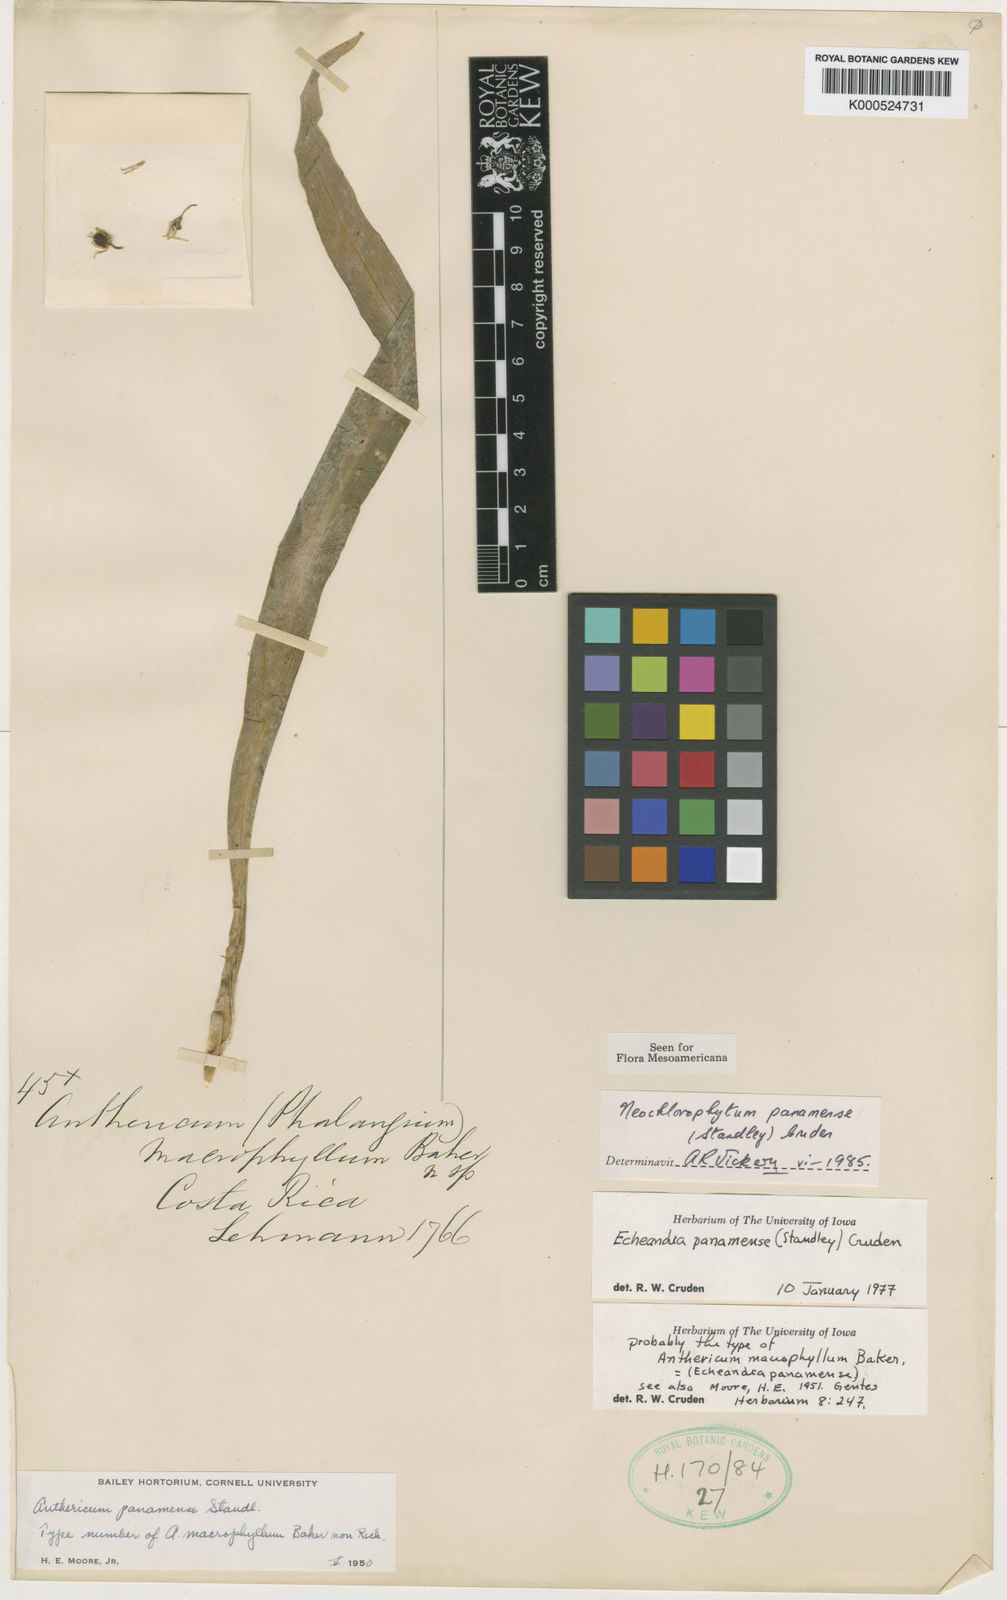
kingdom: Plantae
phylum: Tracheophyta
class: Liliopsida
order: Asparagales
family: Asparagaceae
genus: Hagenbachia
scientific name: Hagenbachia panamensis
